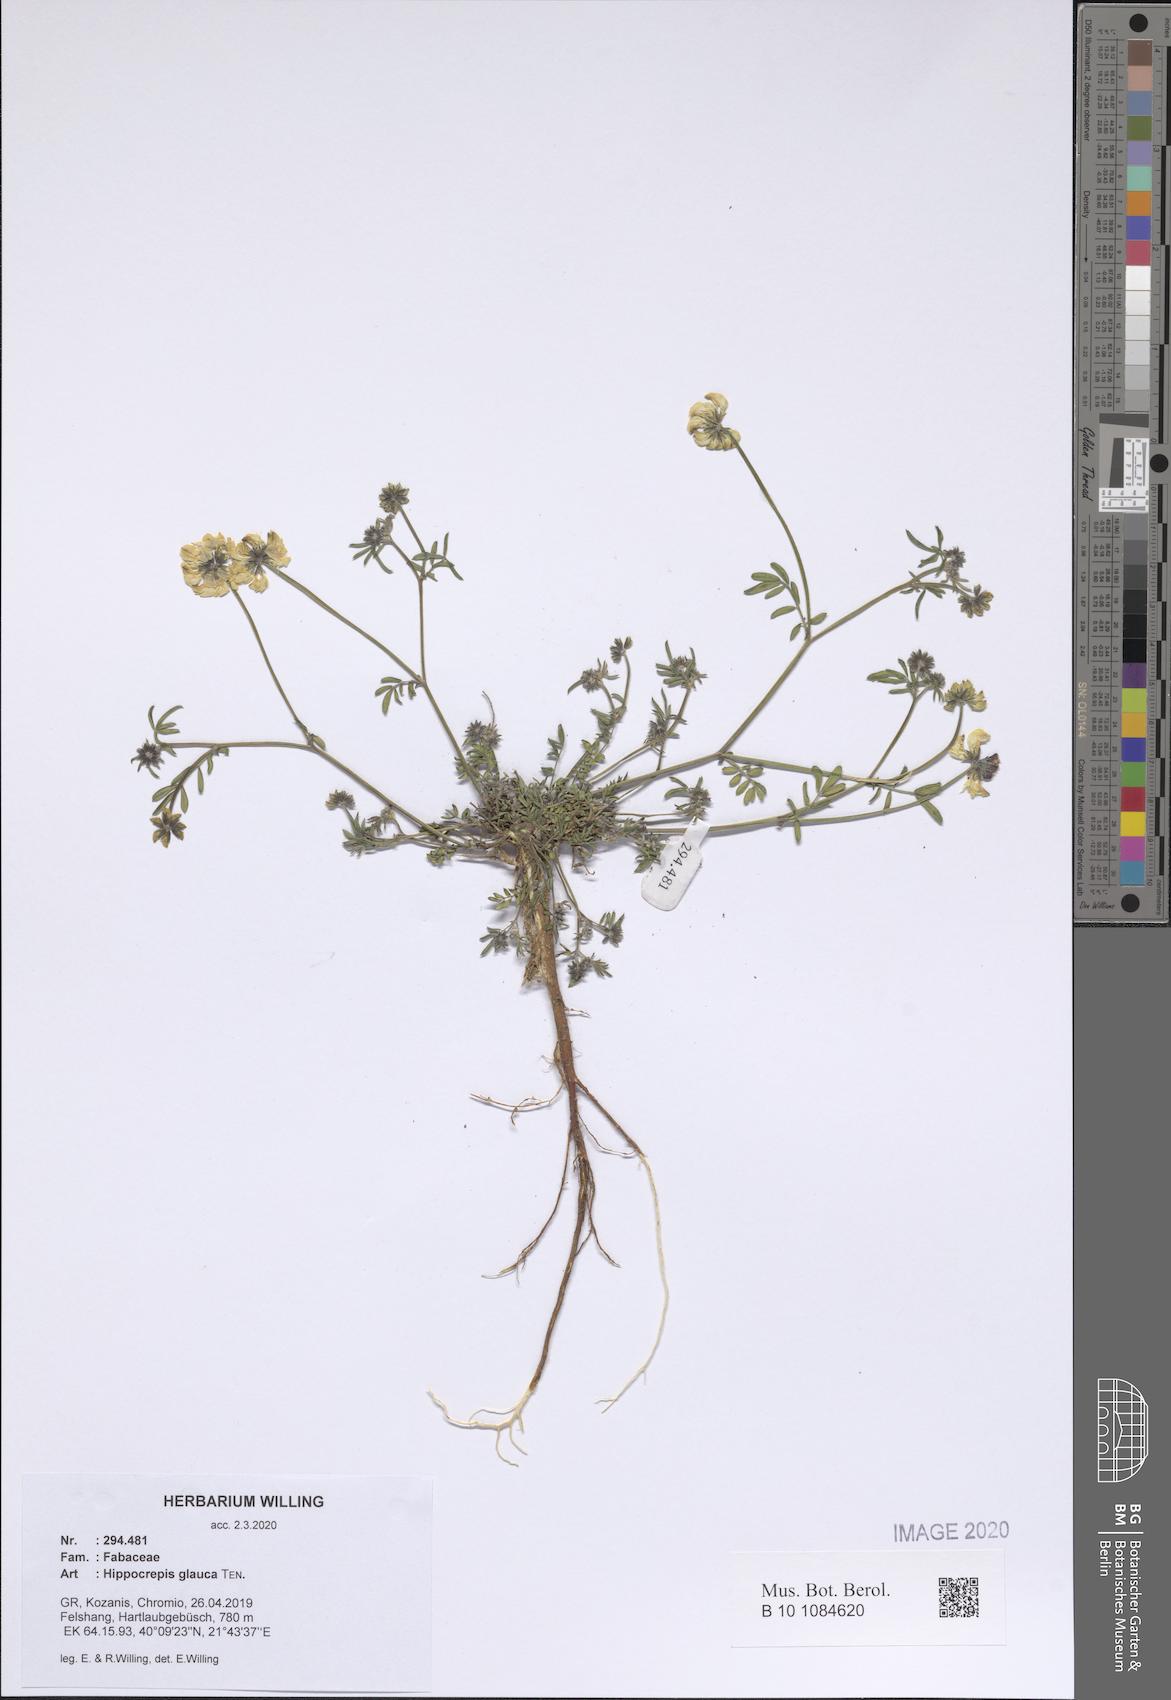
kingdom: Plantae
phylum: Tracheophyta
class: Magnoliopsida
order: Fabales
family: Fabaceae
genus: Hippocrepis
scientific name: Hippocrepis glauca
